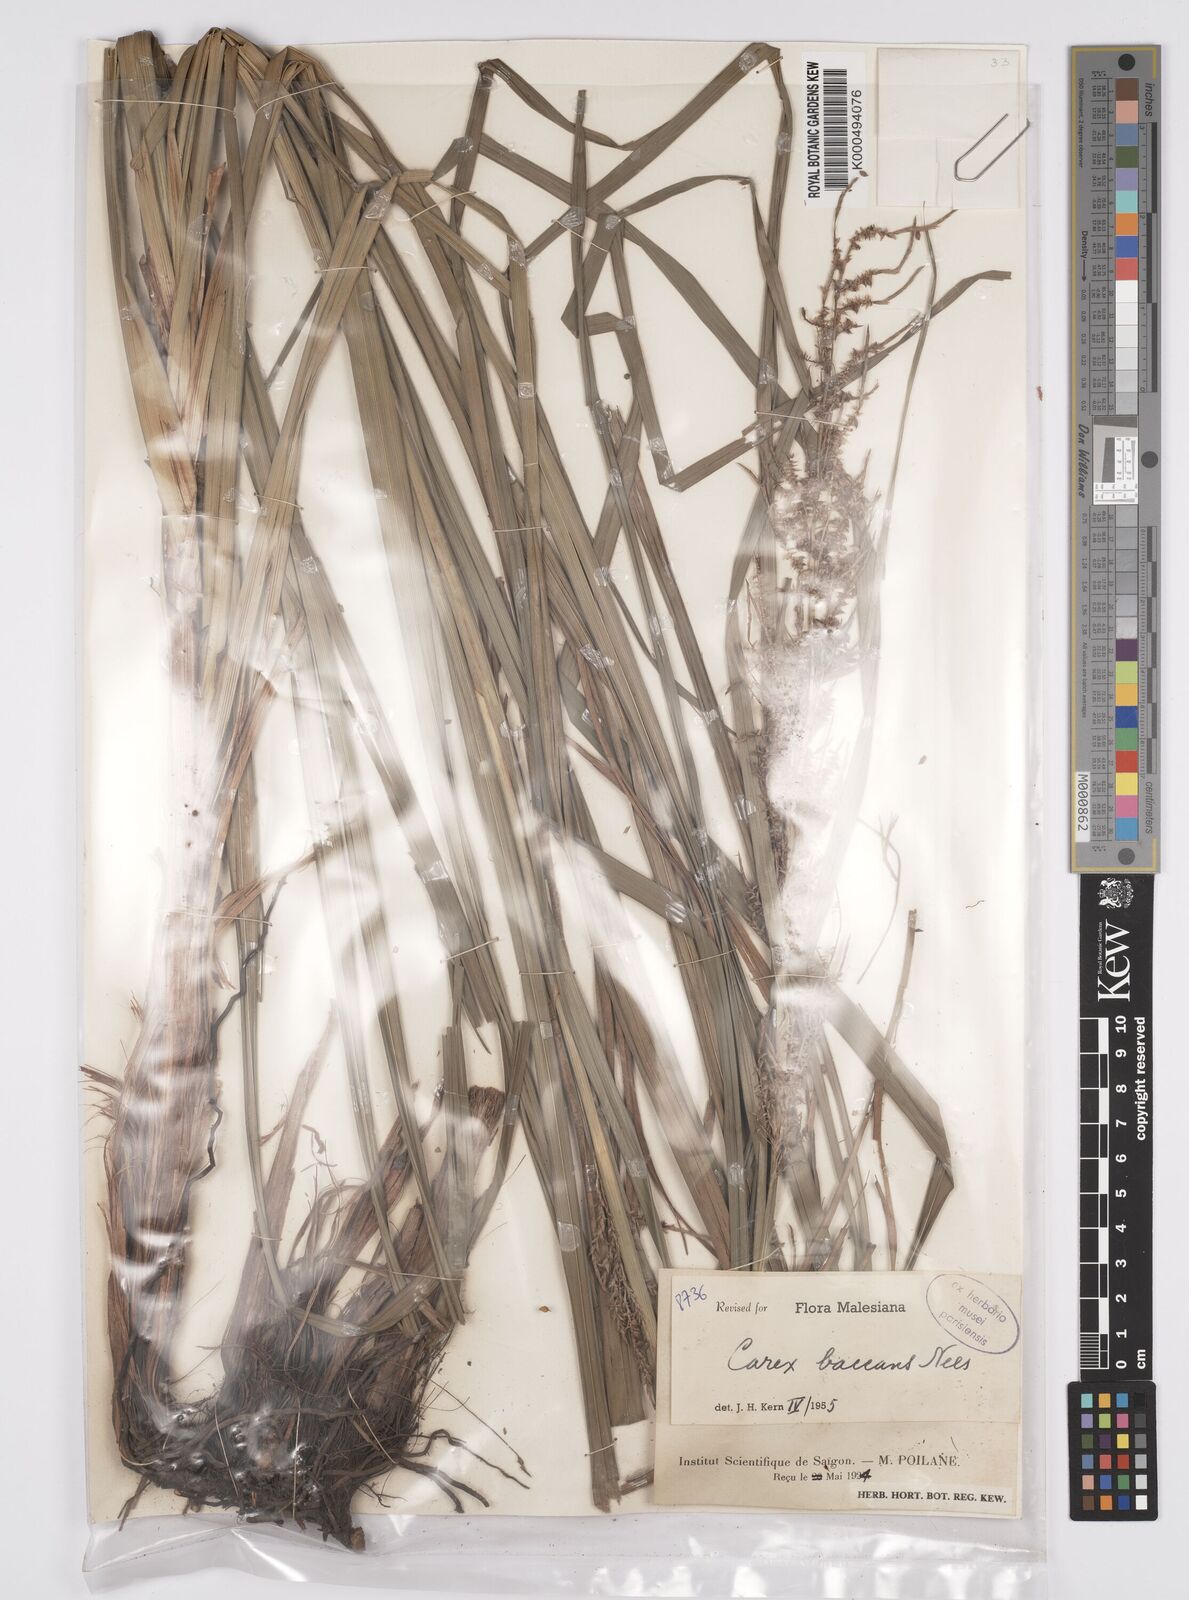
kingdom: Plantae
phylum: Tracheophyta
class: Liliopsida
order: Poales
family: Cyperaceae
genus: Carex
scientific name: Carex baccans
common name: Crimson seeded sedge
